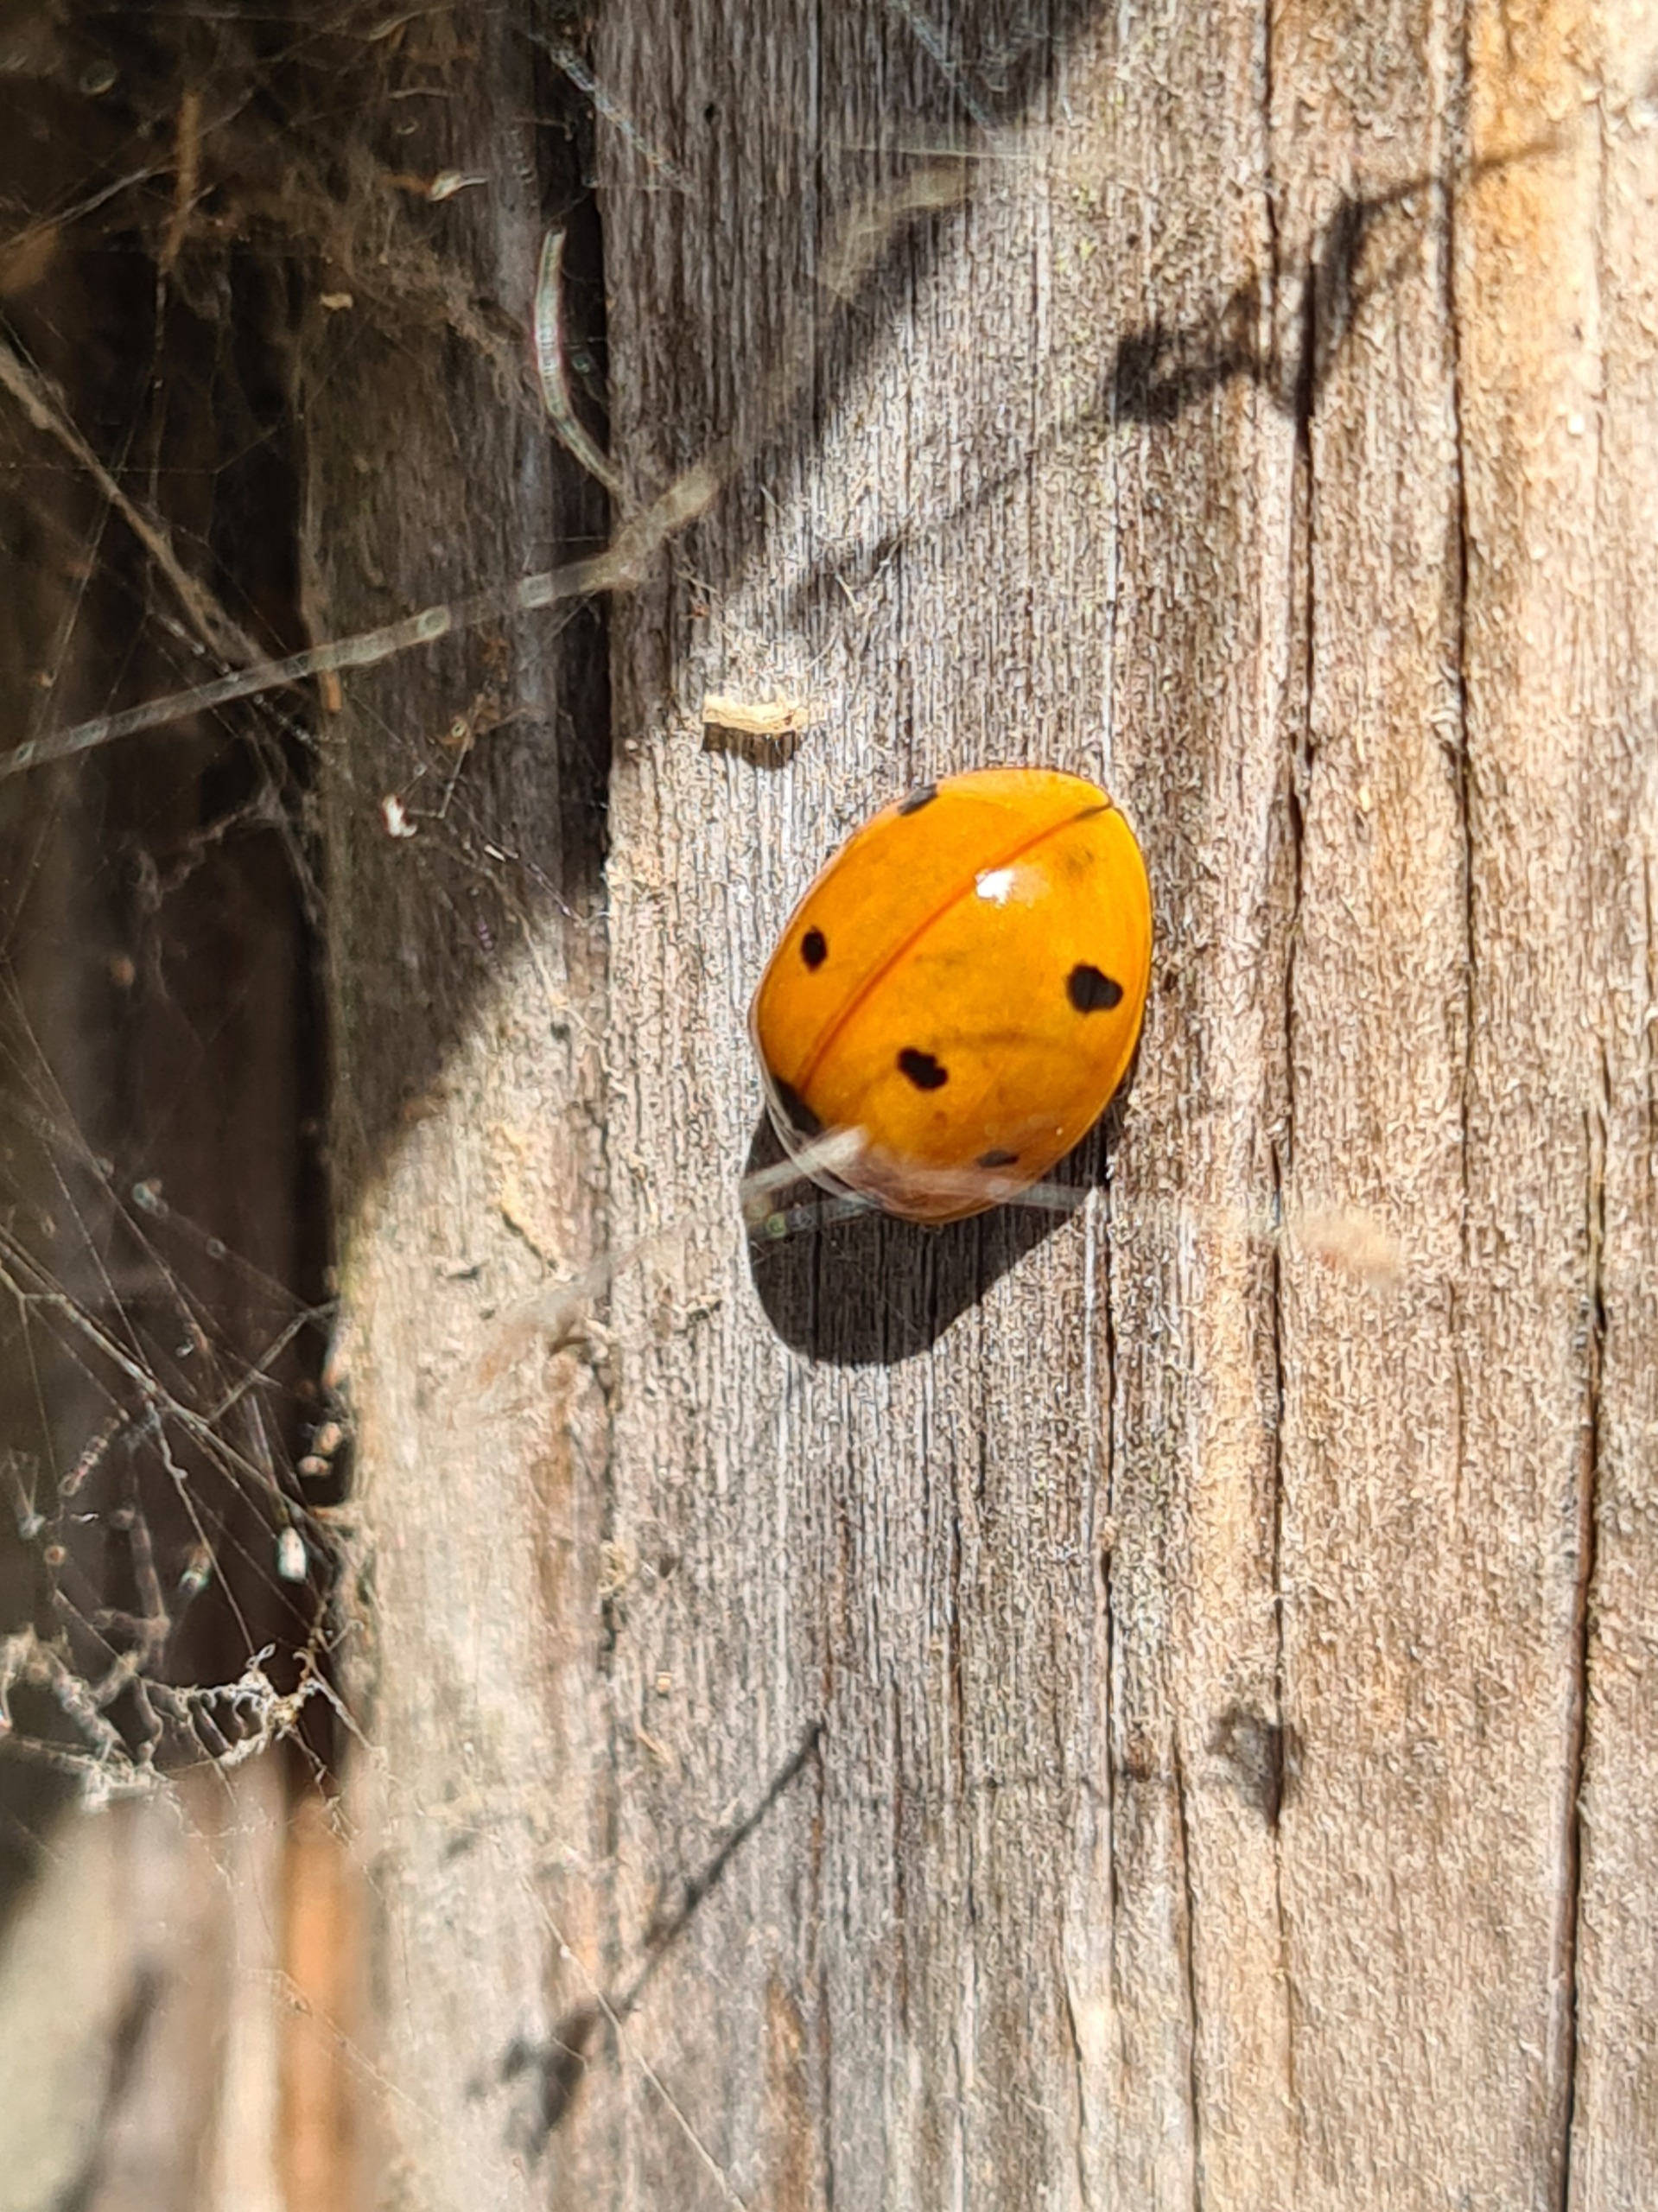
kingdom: Animalia
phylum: Arthropoda
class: Insecta
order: Coleoptera
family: Coccinellidae
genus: Harmonia
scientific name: Harmonia axyridis
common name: Harlekinmariehøne
